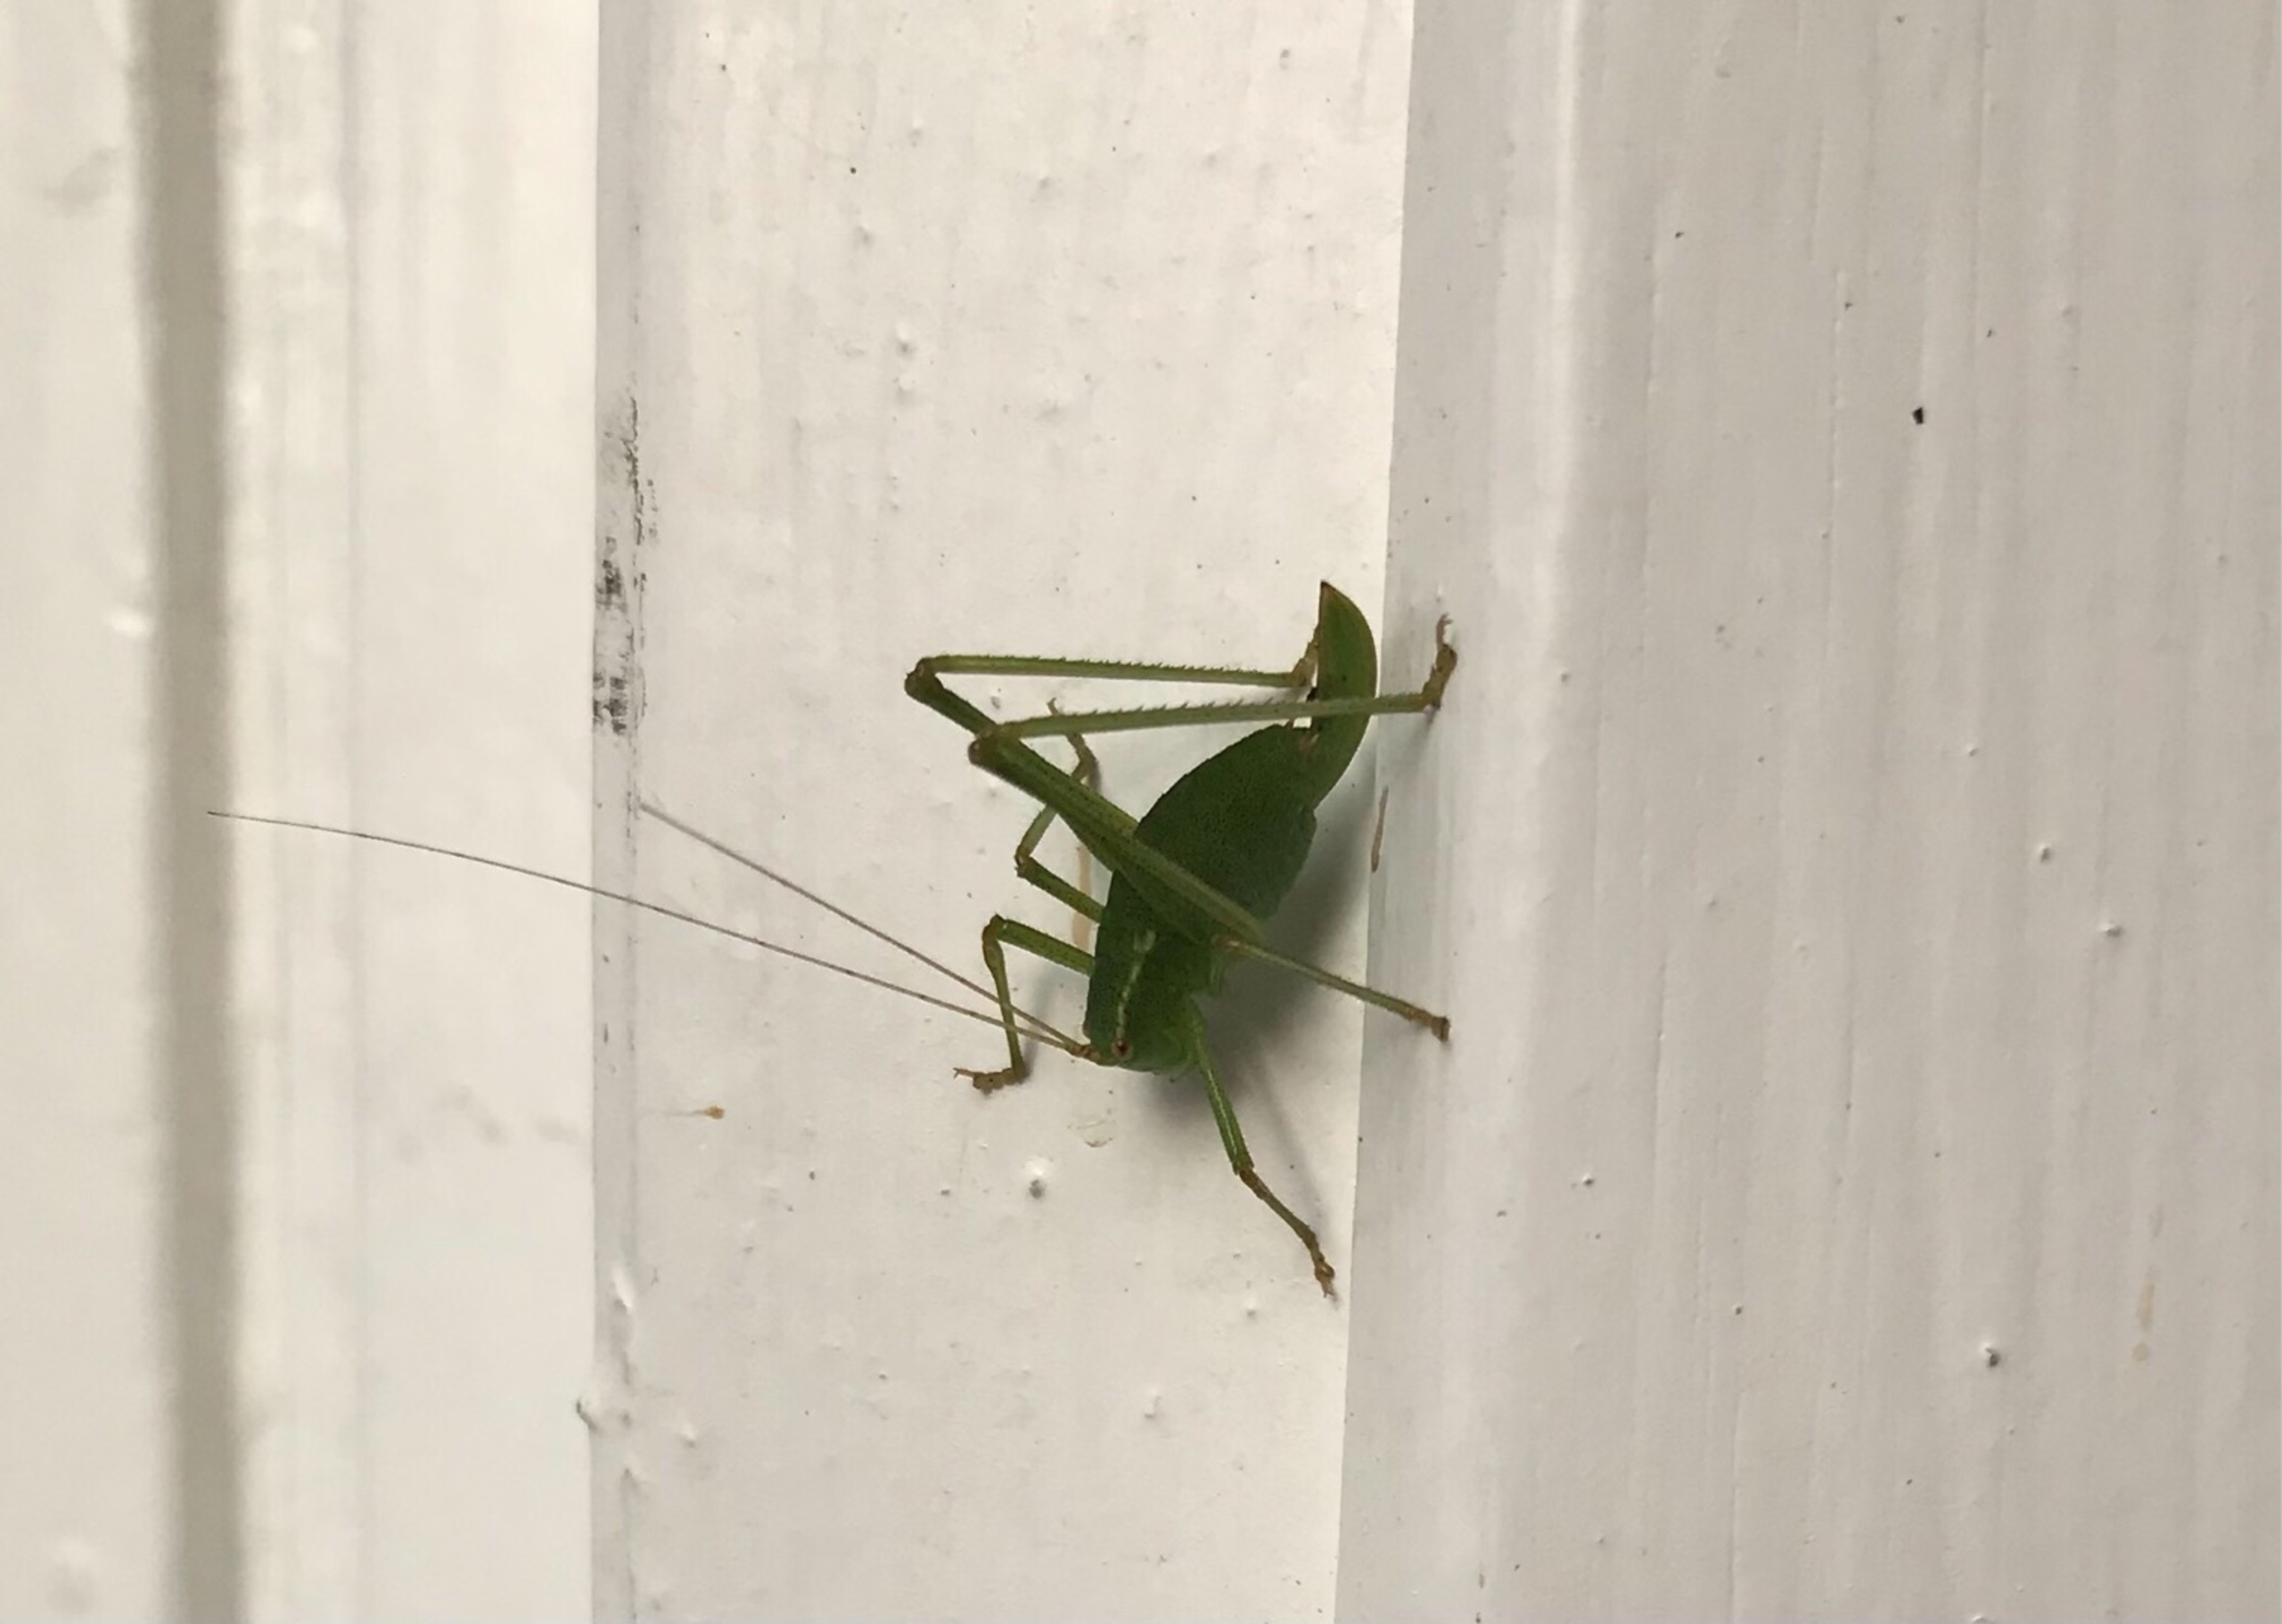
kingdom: Animalia
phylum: Arthropoda
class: Insecta
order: Orthoptera
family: Tettigoniidae
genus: Leptophyes
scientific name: Leptophyes punctatissima
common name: Krumknivgræshoppe
